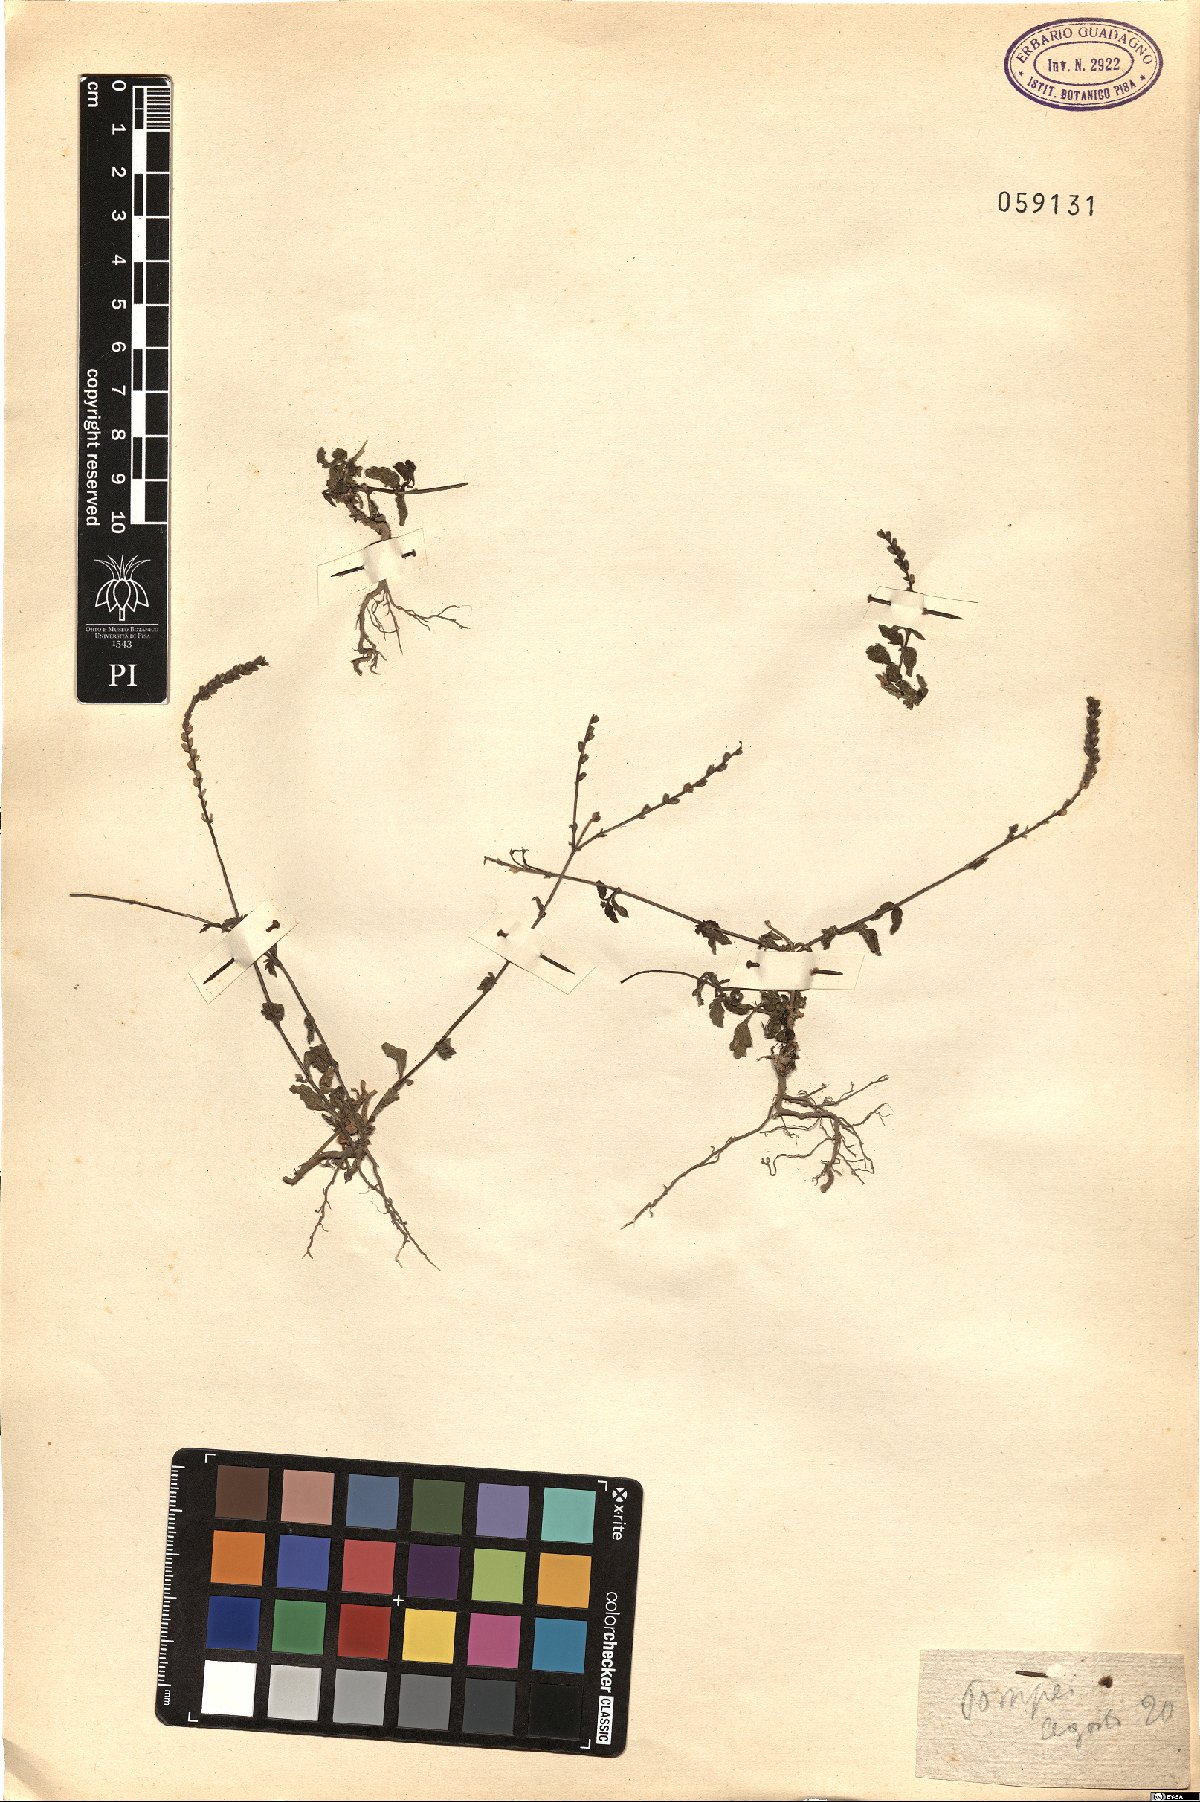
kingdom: Plantae
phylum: Tracheophyta
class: Magnoliopsida
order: Lamiales
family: Verbenaceae
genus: Verbena
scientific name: Verbena officinalis
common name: Vervain
